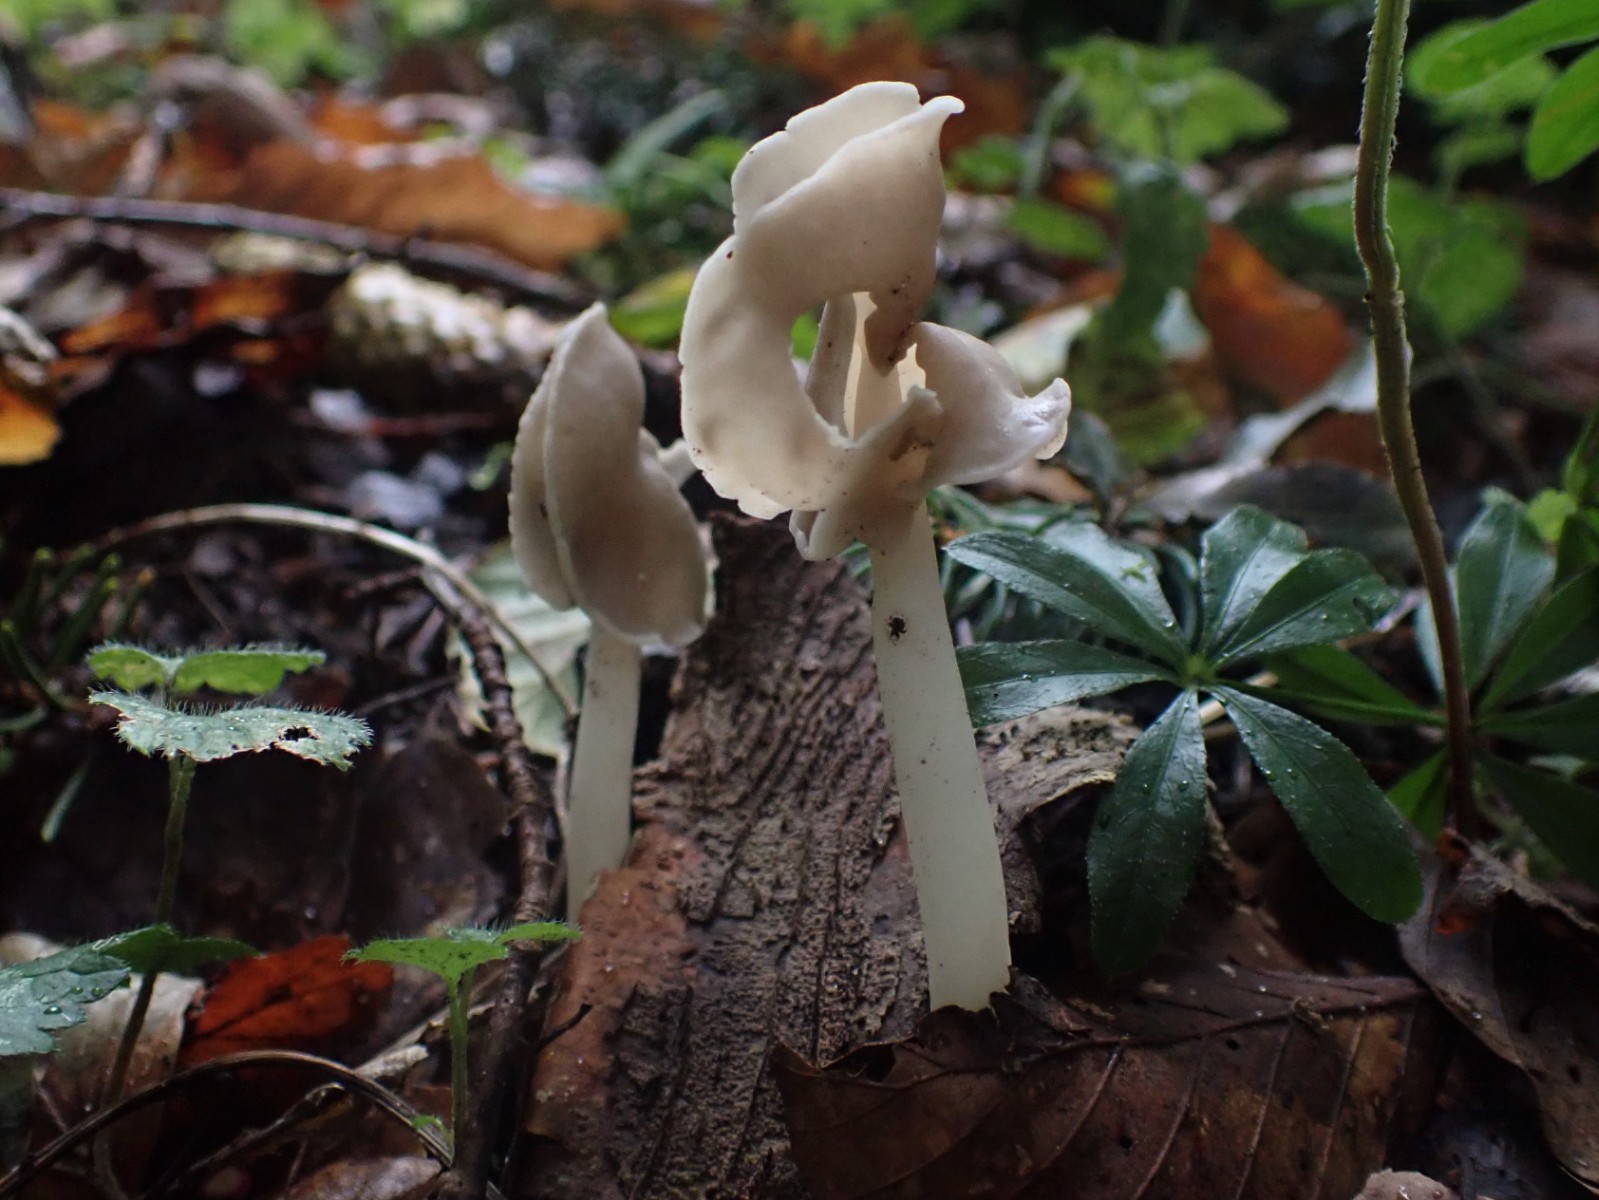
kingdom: Fungi
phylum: Ascomycota
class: Pezizomycetes
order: Pezizales
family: Helvellaceae
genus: Helvella
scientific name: Helvella elastica
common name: elastik-foldhat
